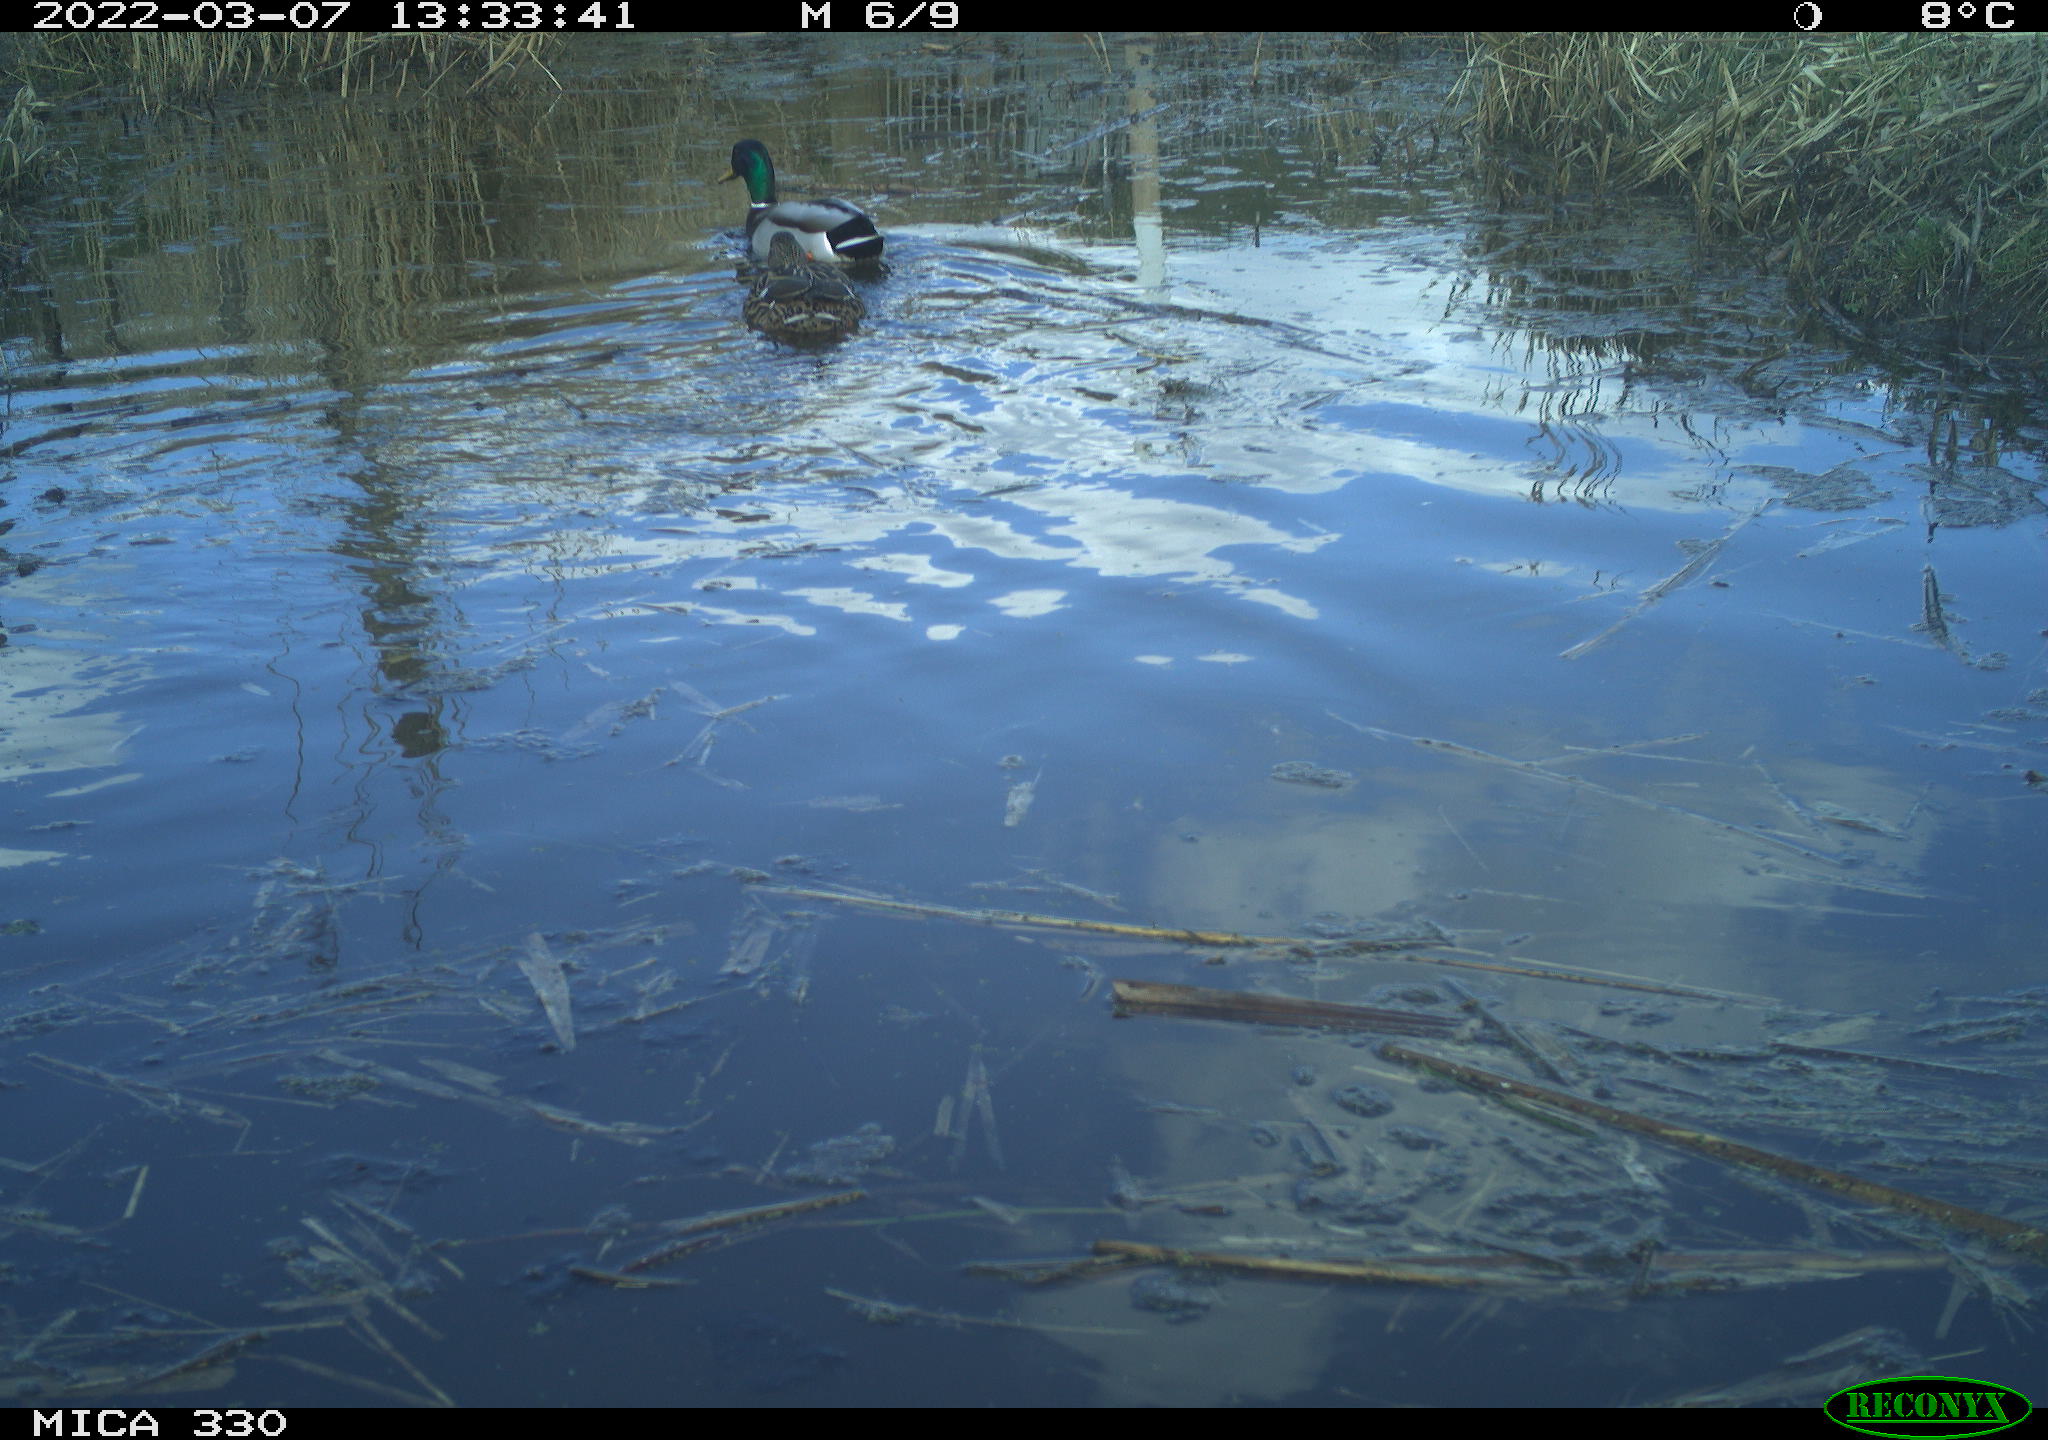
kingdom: Animalia
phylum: Chordata
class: Aves
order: Anseriformes
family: Anatidae
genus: Anas
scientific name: Anas platyrhynchos
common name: Mallard
